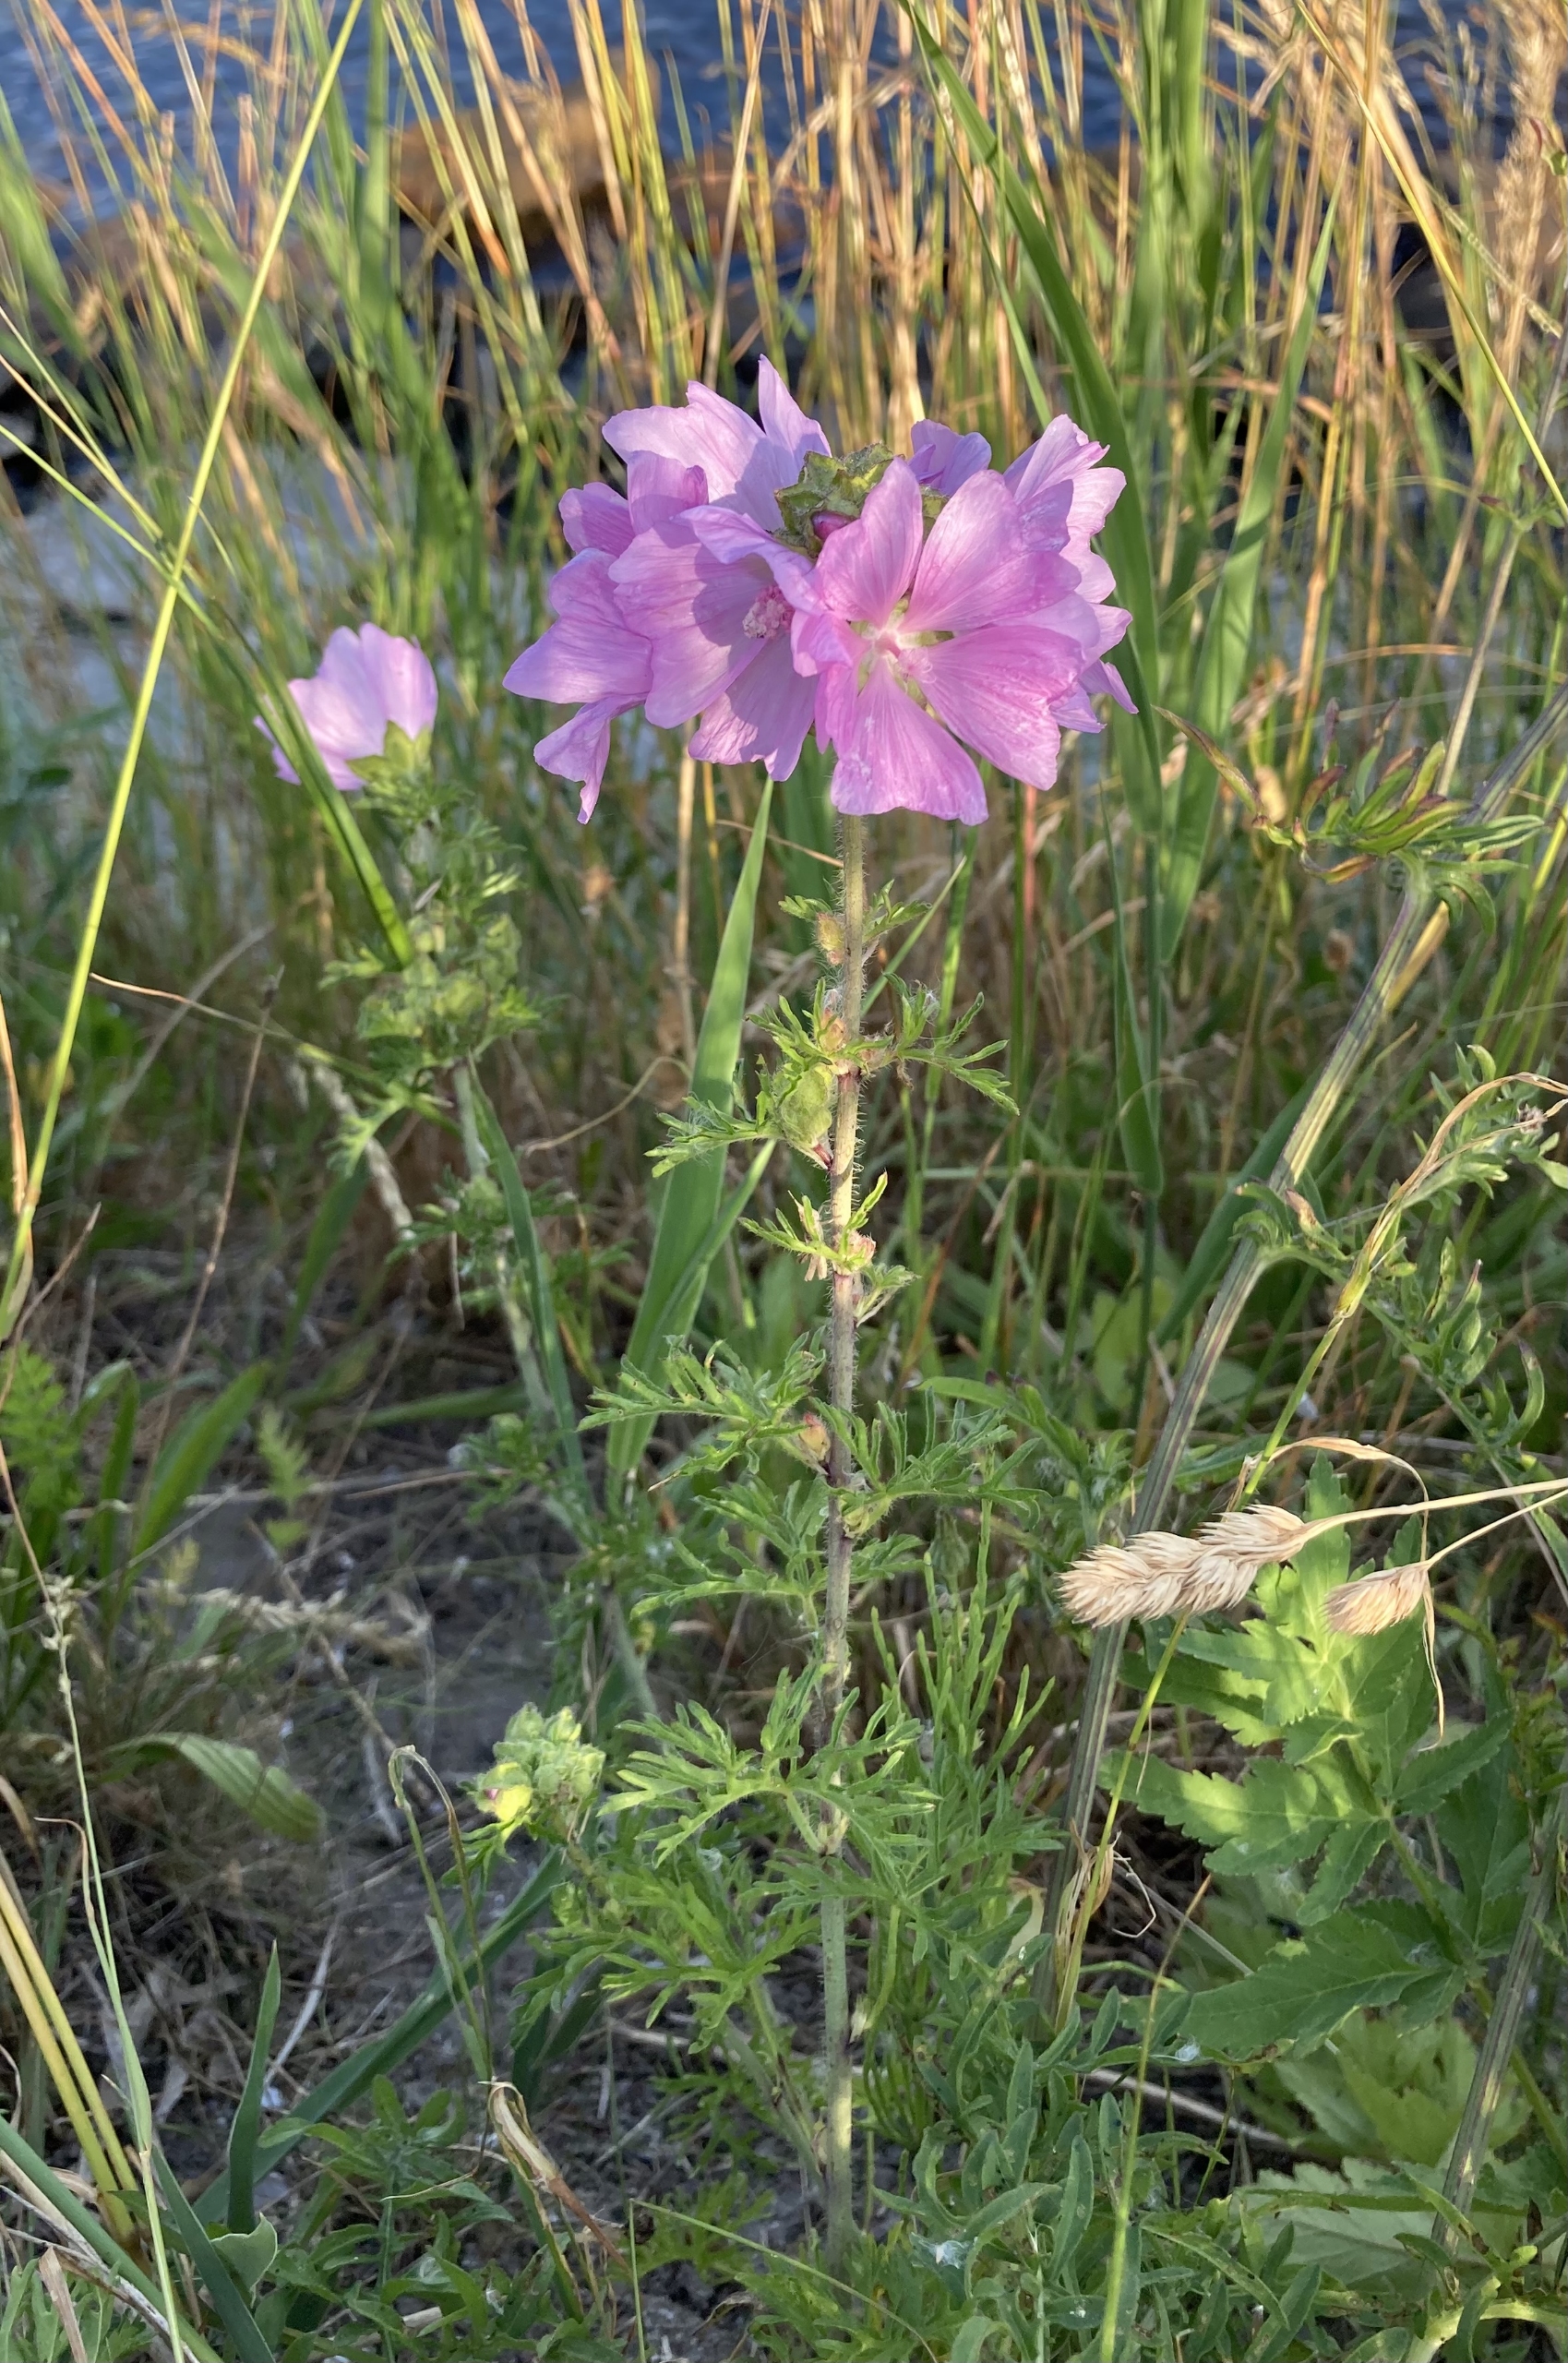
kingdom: Plantae
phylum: Tracheophyta
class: Magnoliopsida
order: Malvales
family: Malvaceae
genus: Malva
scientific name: Malva moschata
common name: Moskus-katost
